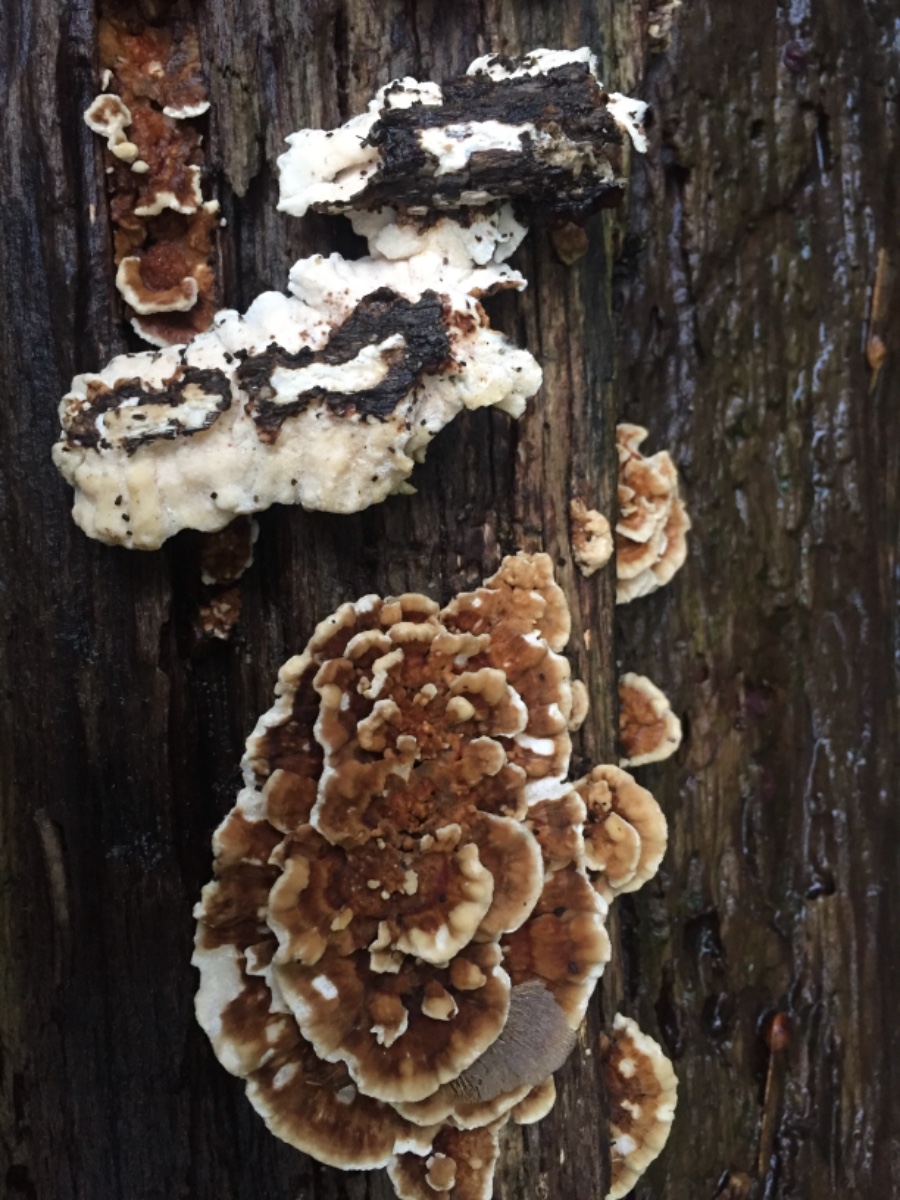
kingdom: Fungi
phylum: Basidiomycota
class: Agaricomycetes
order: Polyporales
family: Polyporaceae
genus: Trametes
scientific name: Trametes ochracea
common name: bæltet læderporesvamp
